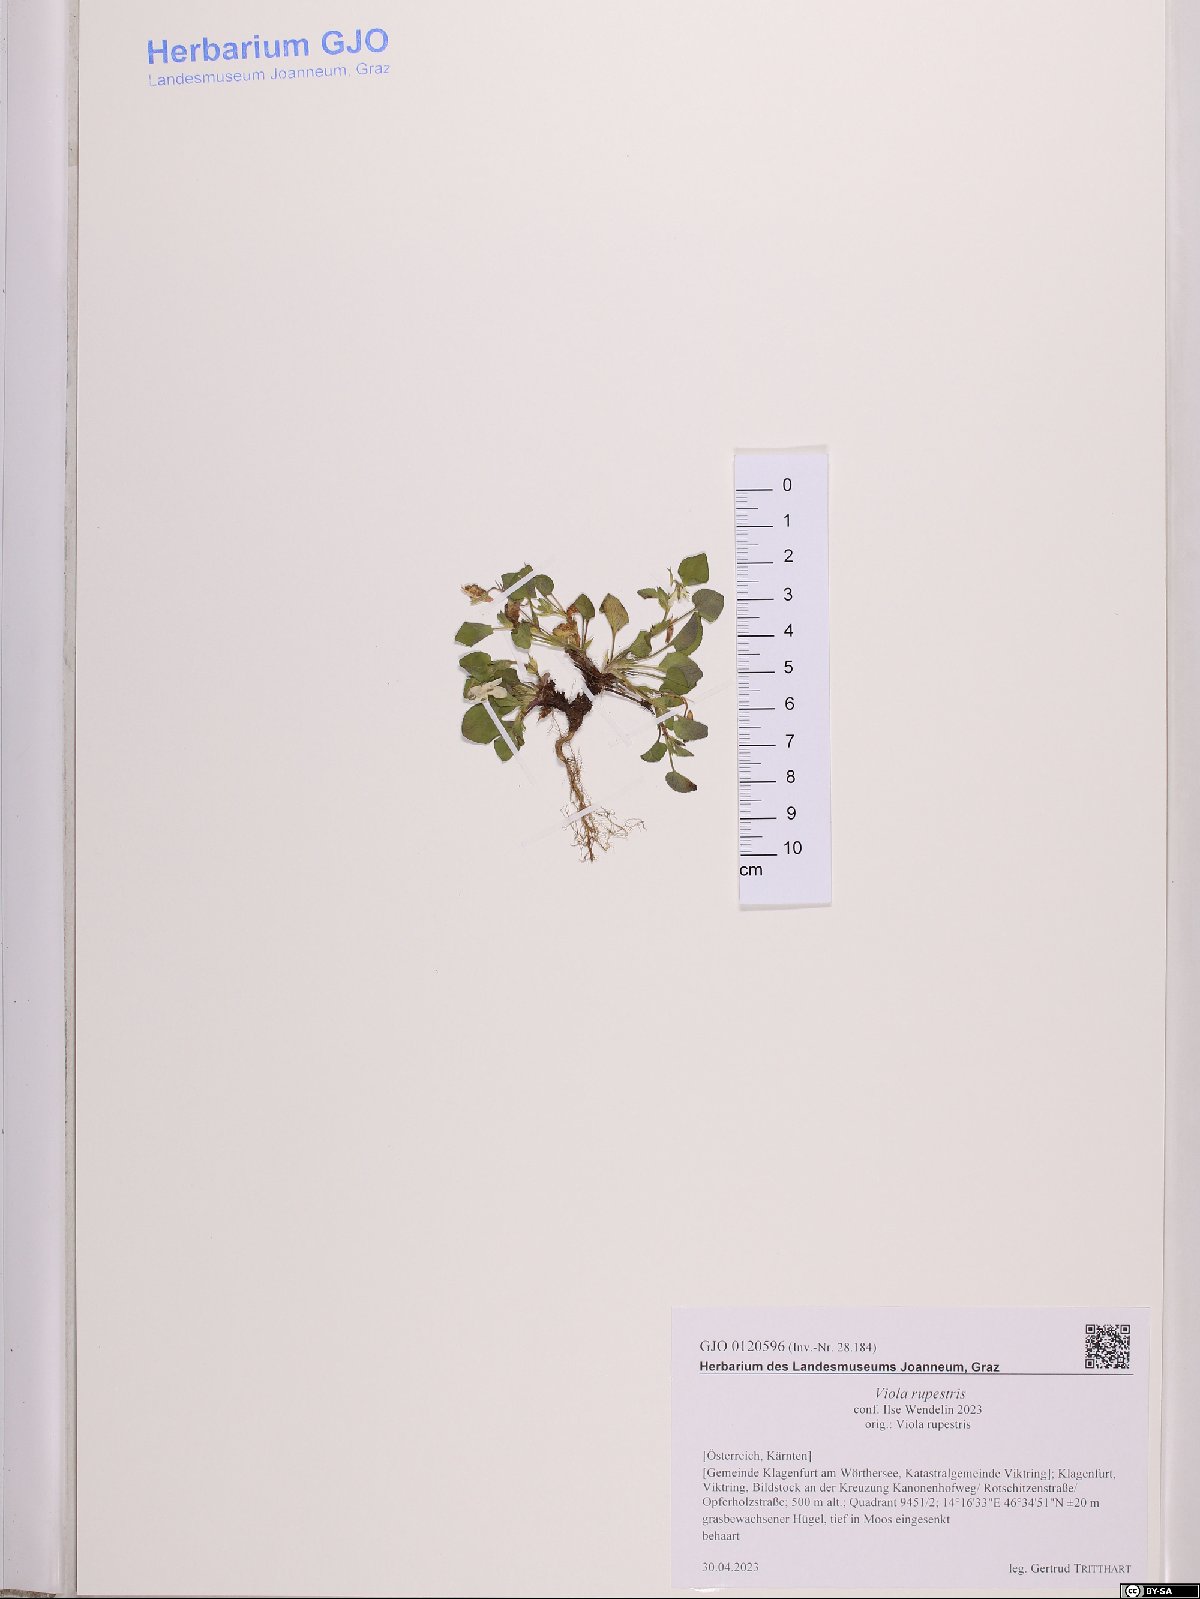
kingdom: Plantae
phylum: Tracheophyta
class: Magnoliopsida
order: Malpighiales
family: Violaceae
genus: Viola
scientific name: Viola rupestris
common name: Teesdale violet
